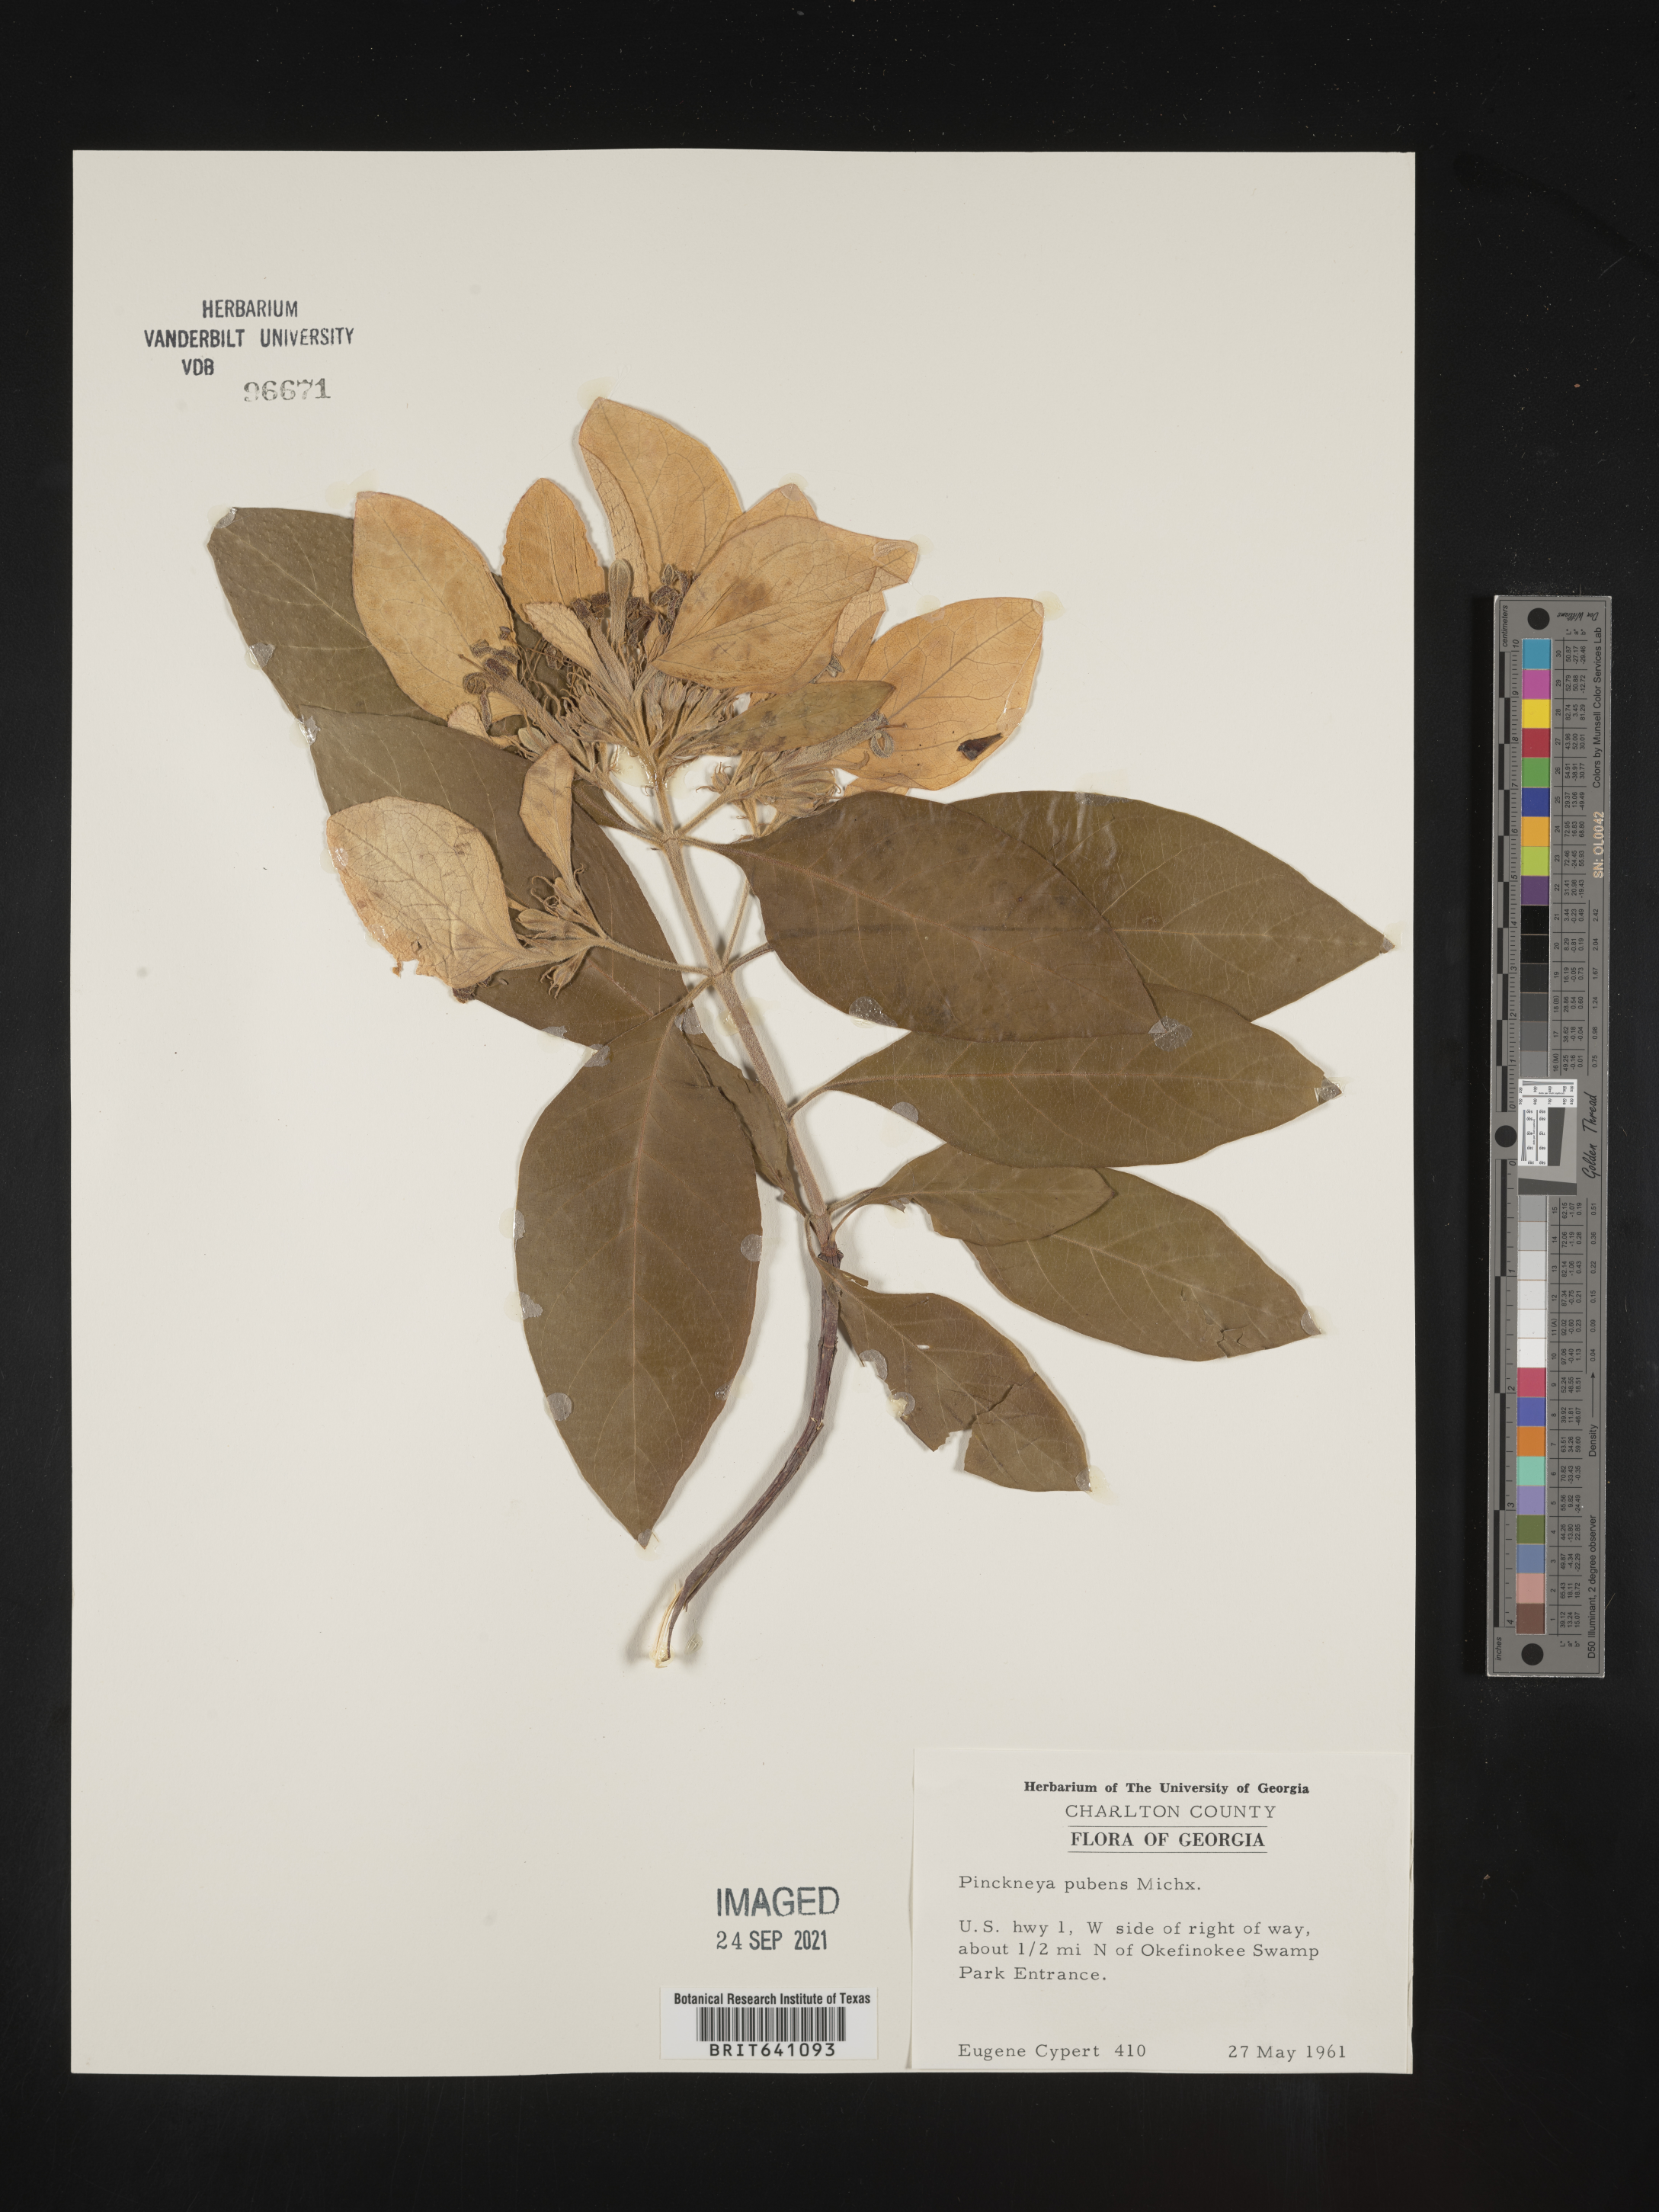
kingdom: Plantae
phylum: Tracheophyta
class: Magnoliopsida
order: Gentianales
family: Rubiaceae
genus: Pinckneya
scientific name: Pinckneya pubens
